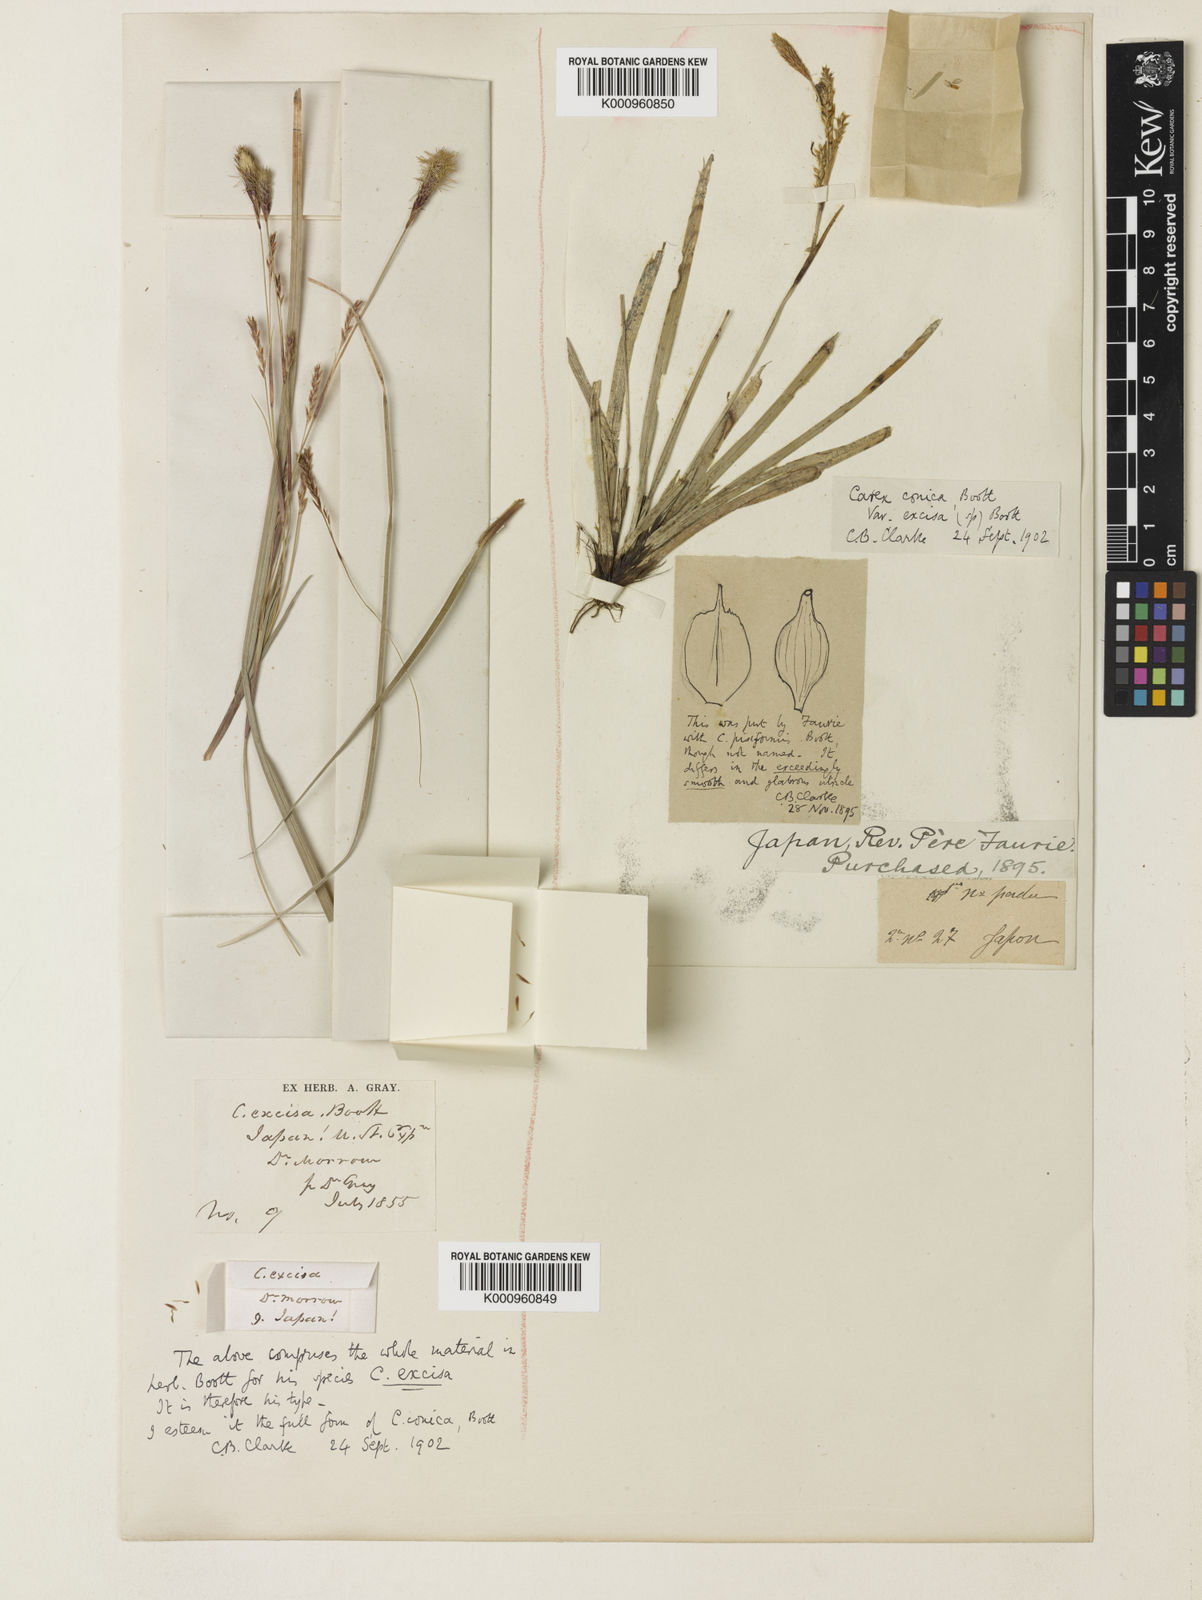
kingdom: Plantae
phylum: Tracheophyta
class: Liliopsida
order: Poales
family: Cyperaceae
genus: Carex
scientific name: Carex conica
